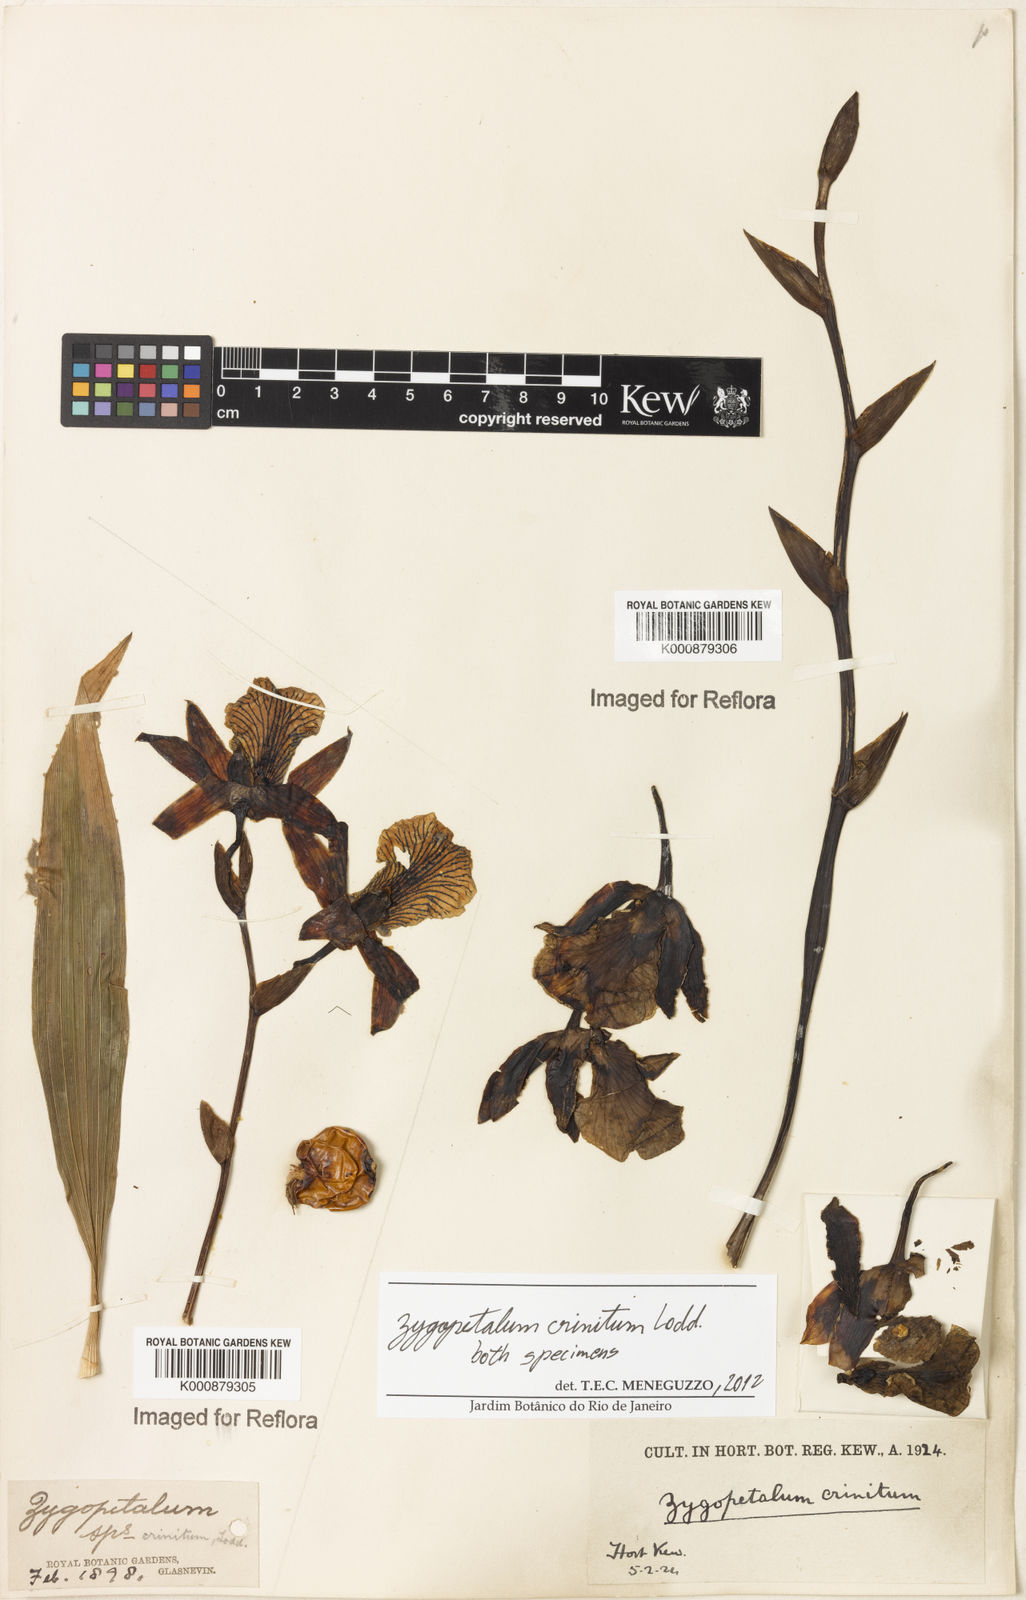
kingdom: Plantae
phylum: Tracheophyta
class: Liliopsida
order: Asparagales
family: Orchidaceae
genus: Zygopetalum
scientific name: Zygopetalum crinitum
